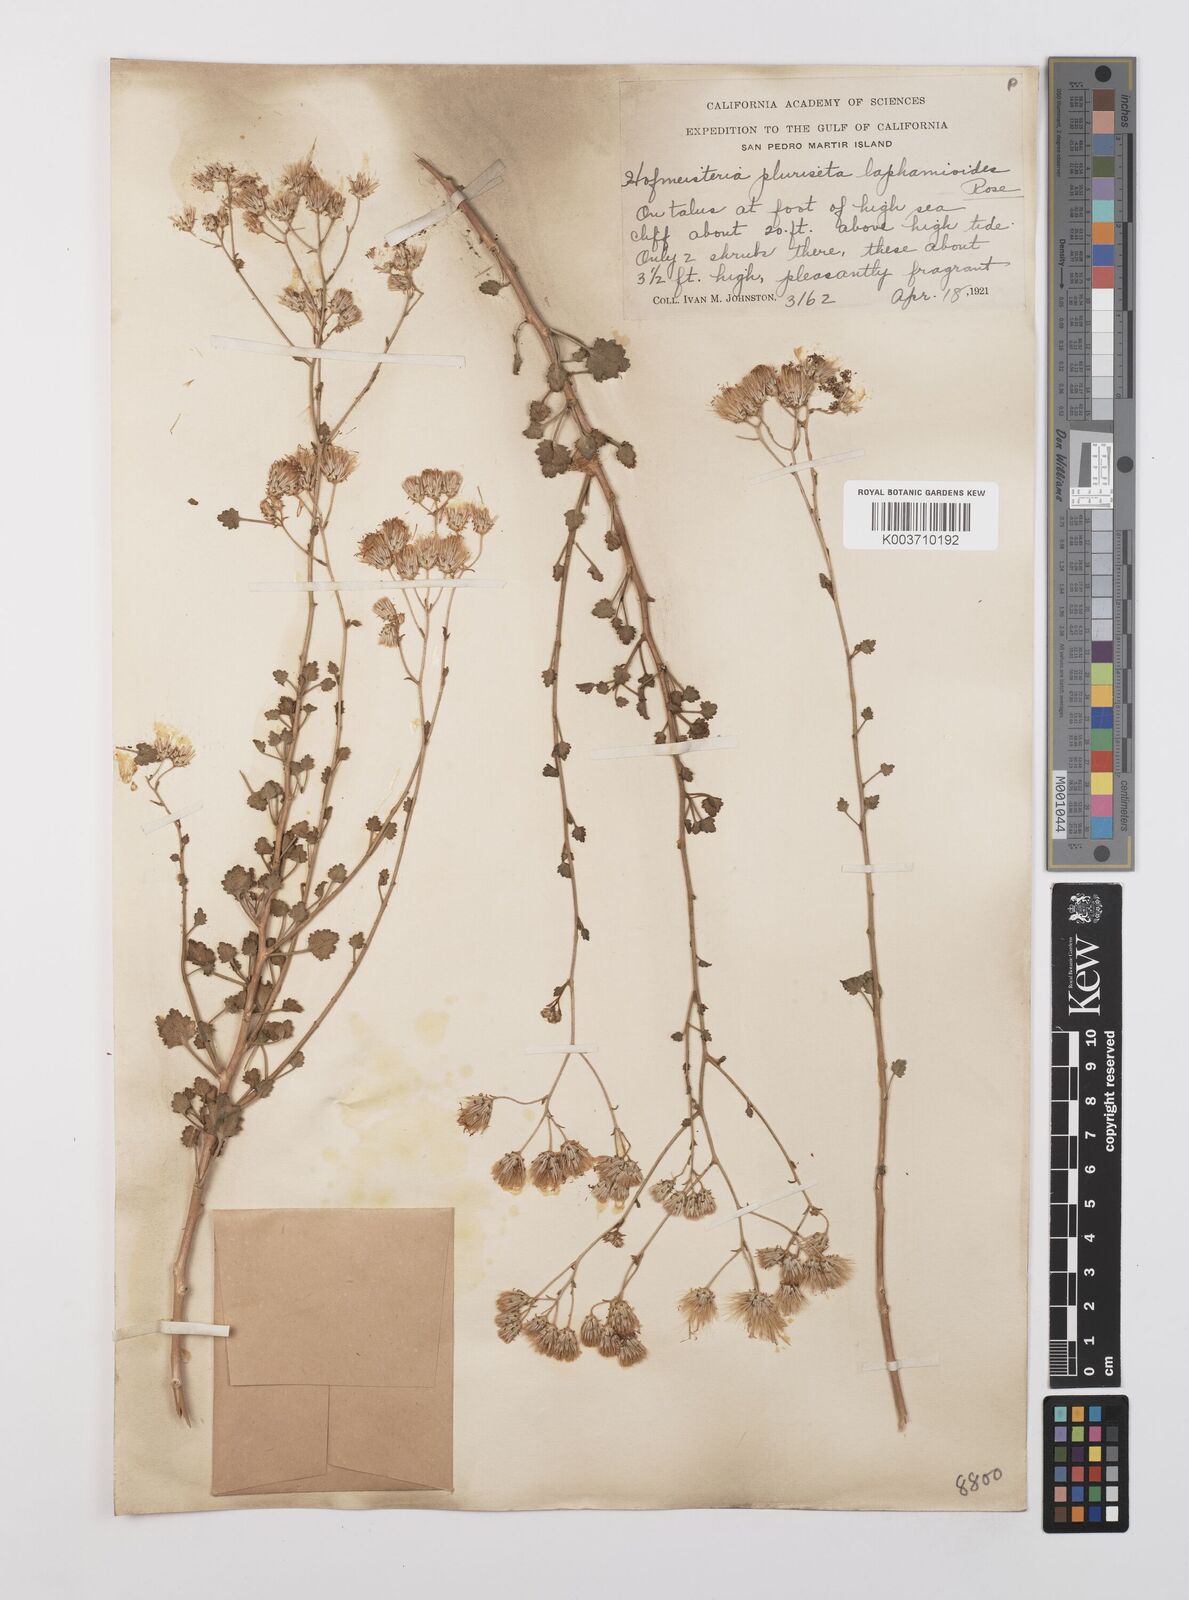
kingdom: Plantae
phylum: Tracheophyta
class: Magnoliopsida
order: Asterales
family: Asteraceae
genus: Pleurocoronis
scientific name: Pleurocoronis laphamioides
